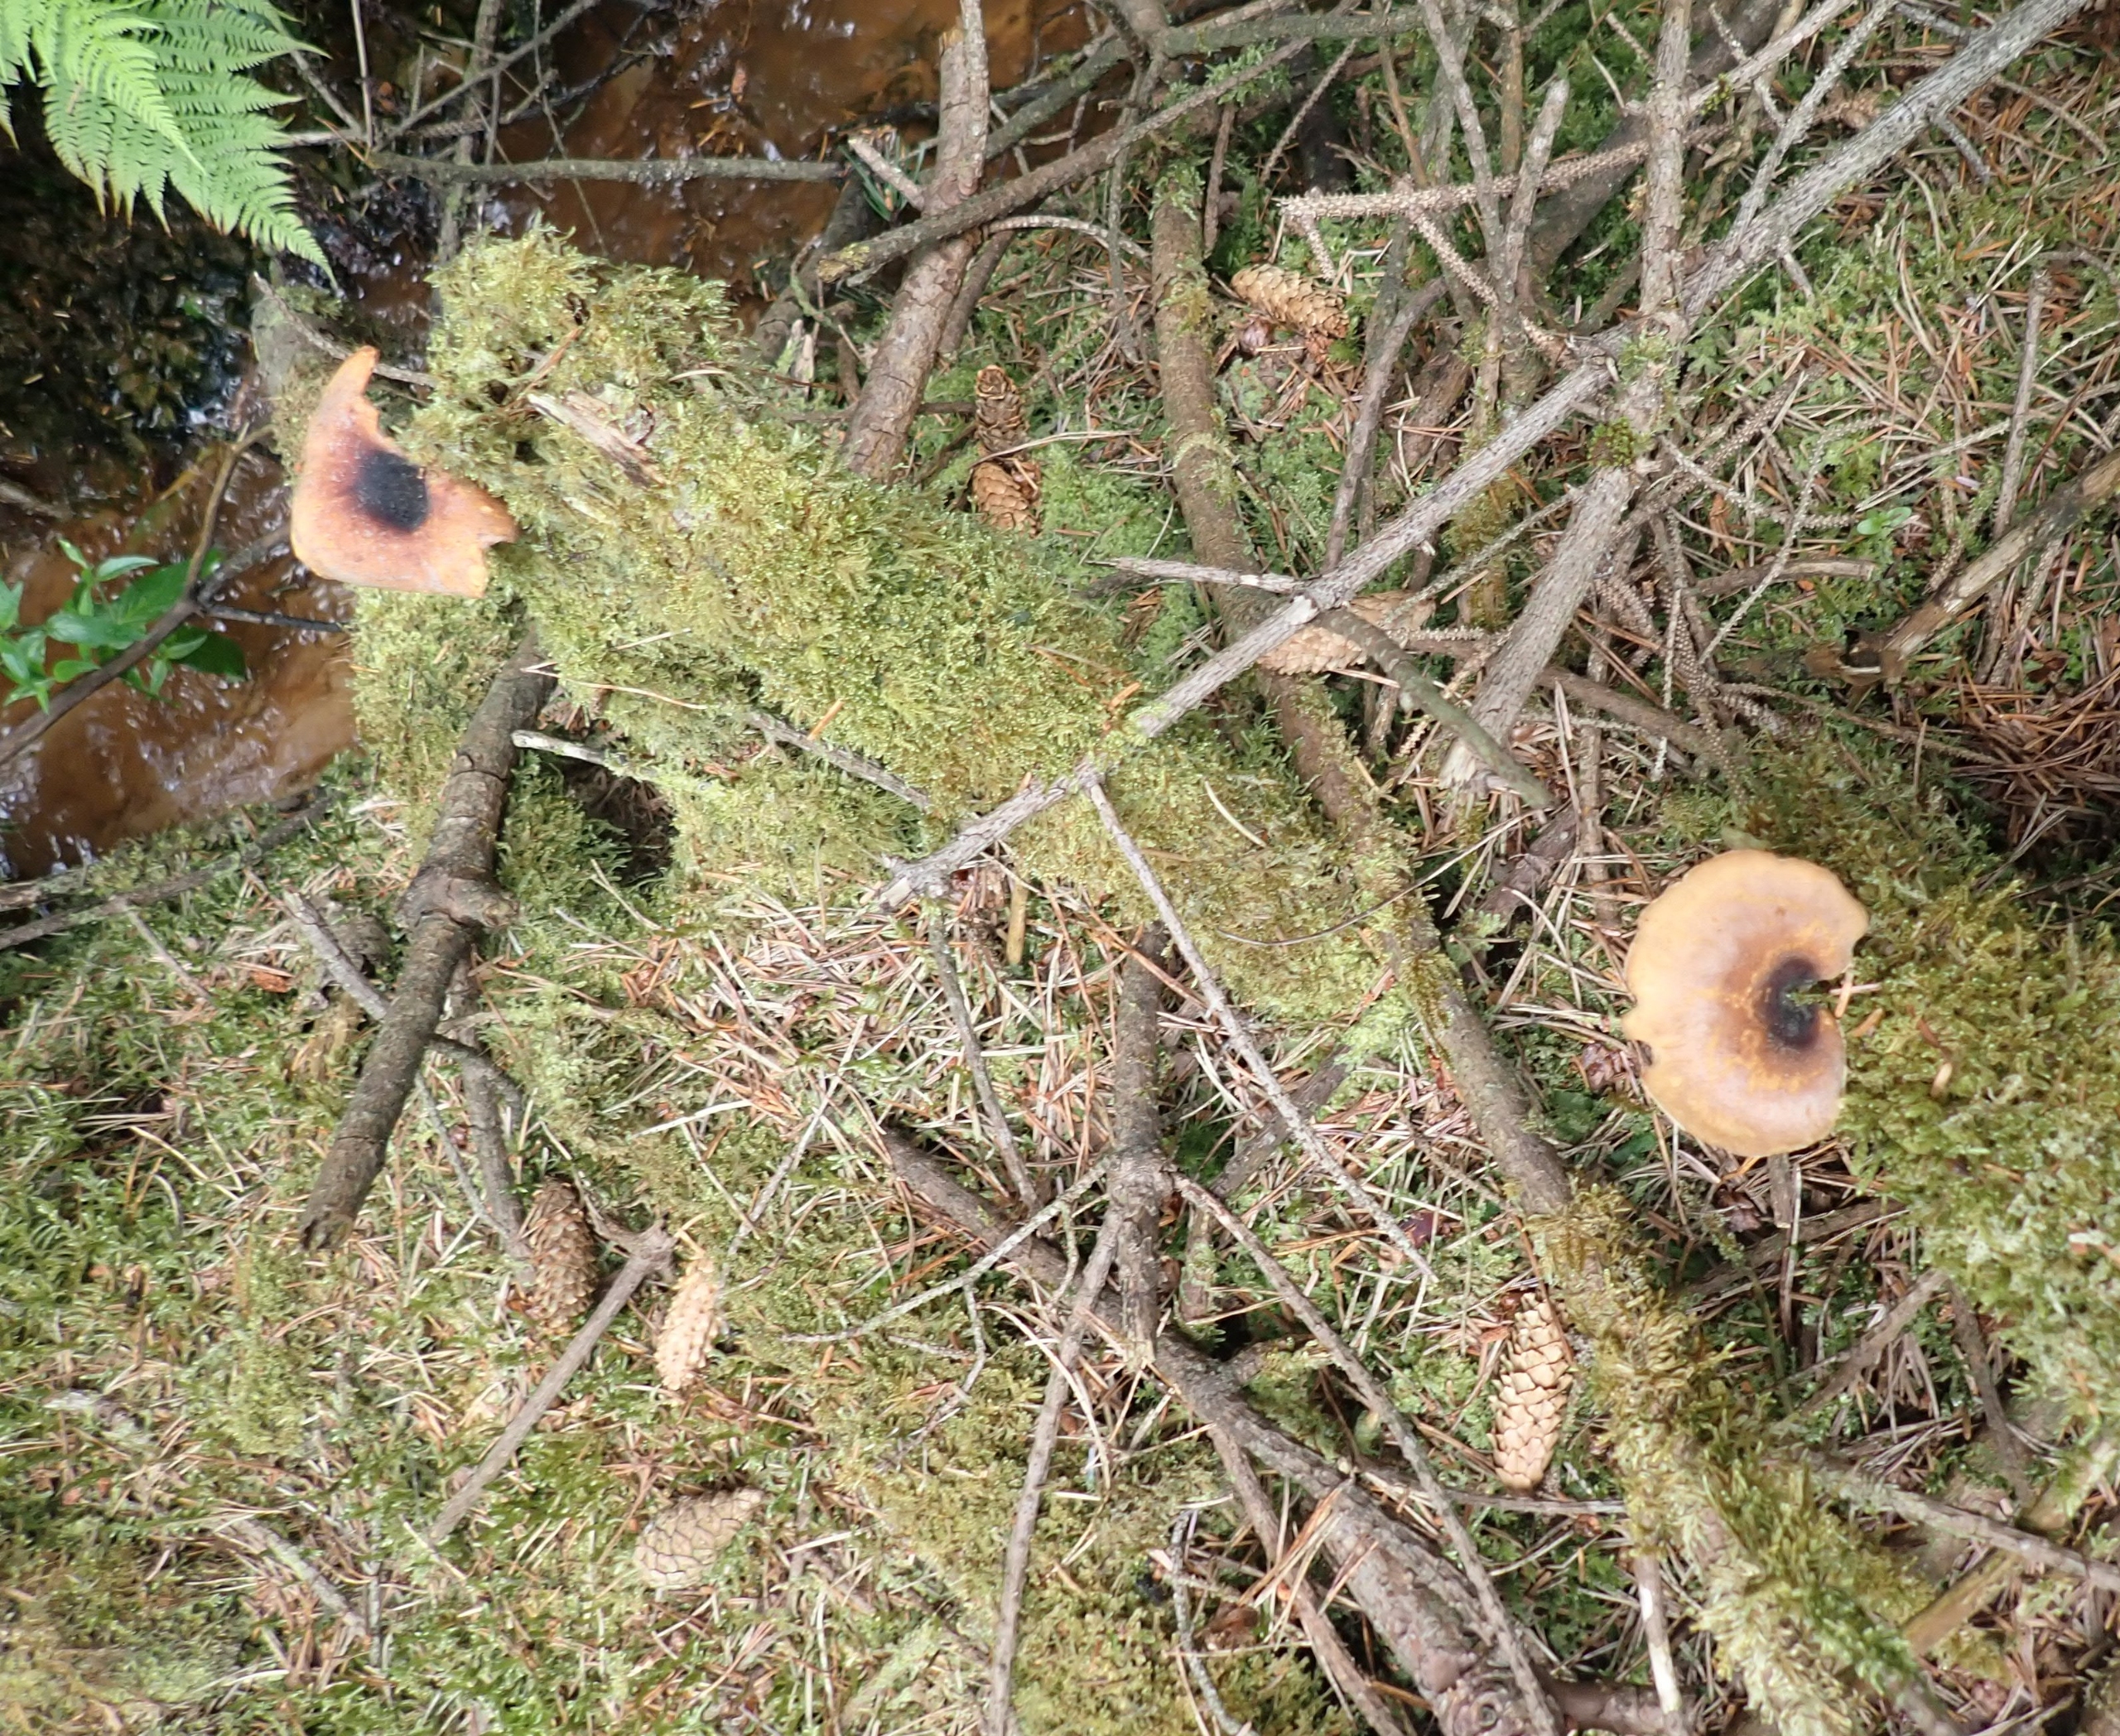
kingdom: Fungi
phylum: Basidiomycota
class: Agaricomycetes
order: Polyporales
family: Polyporaceae
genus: Picipes
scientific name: Picipes tubaeformis
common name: Trompet-stilkporesvamp
